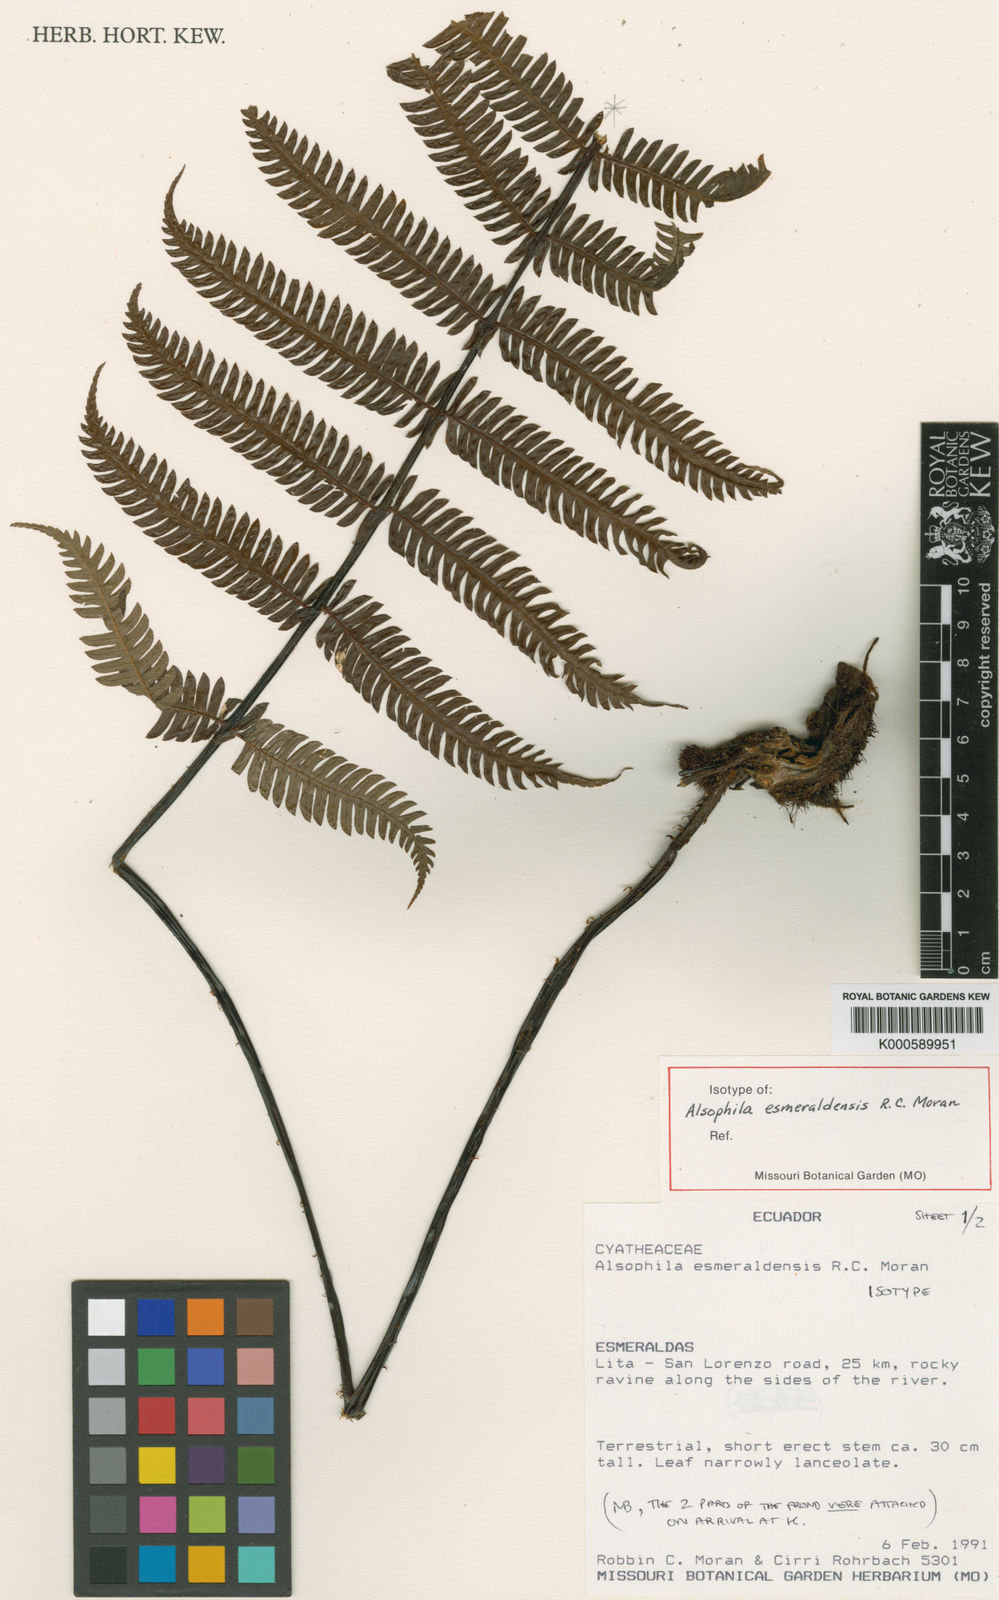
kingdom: Plantae
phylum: Tracheophyta
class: Polypodiopsida
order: Cyatheales
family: Cyatheaceae
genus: Alsophila
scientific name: Alsophila esmeraldensis
